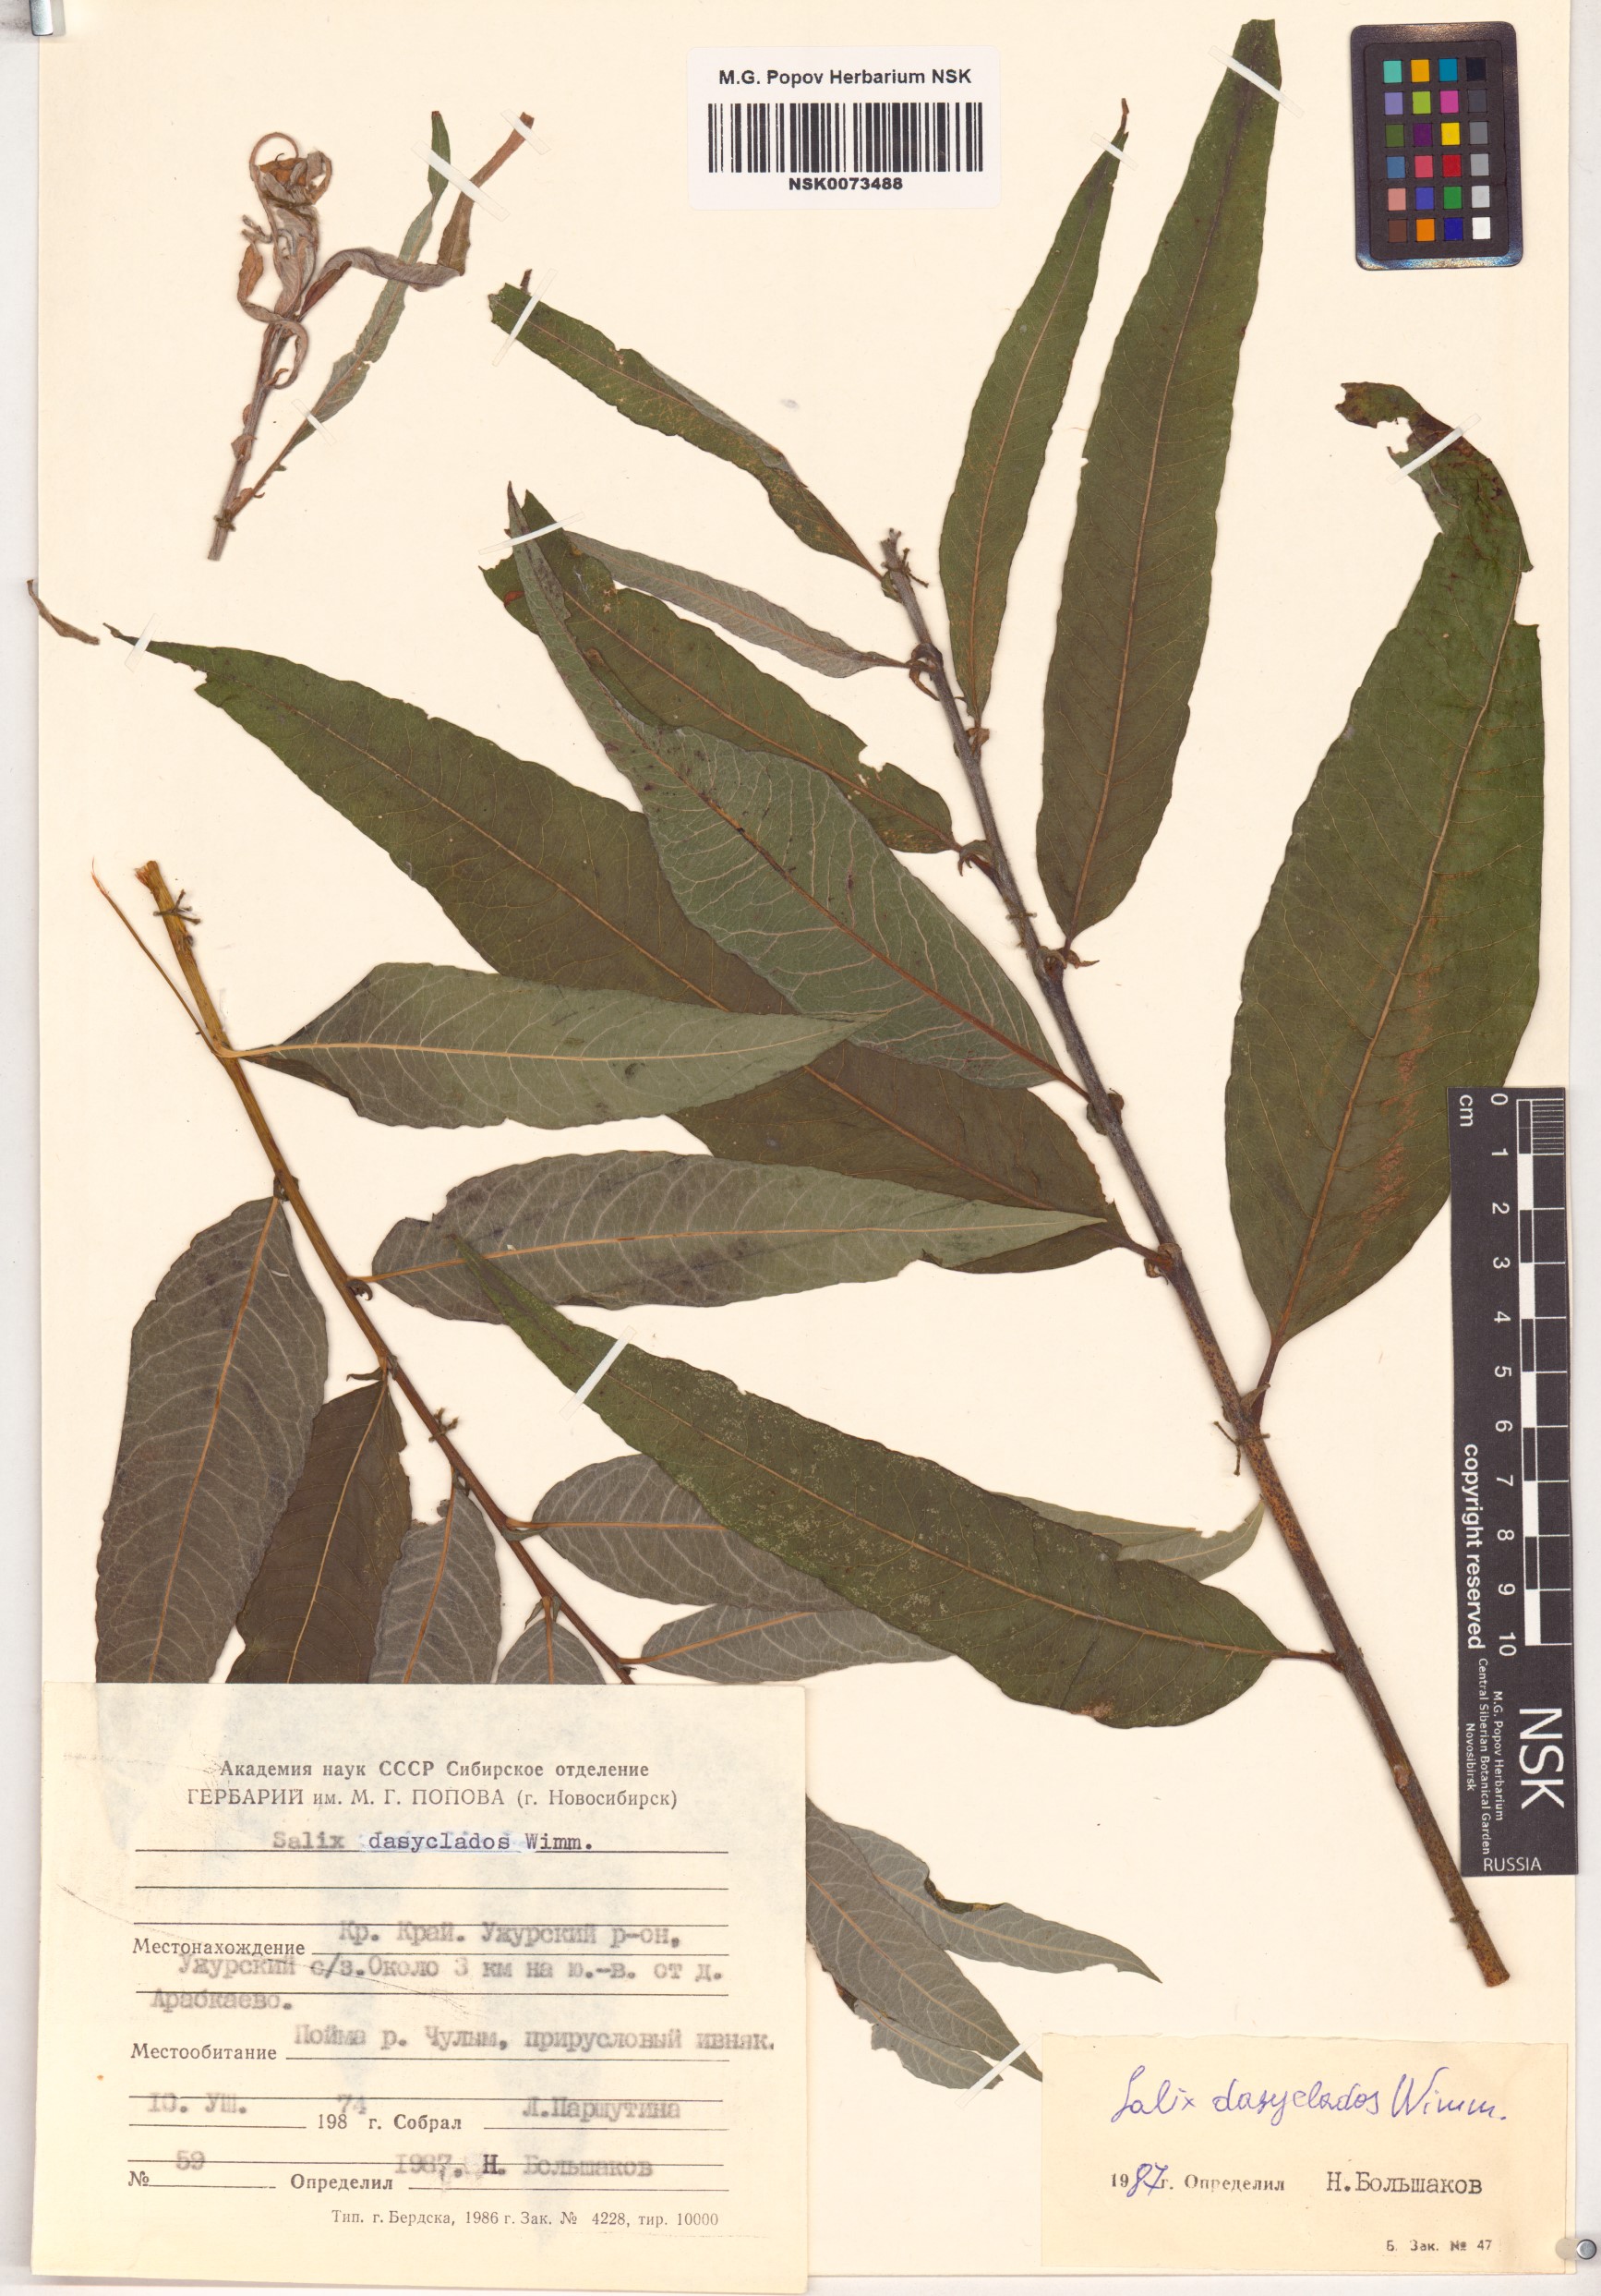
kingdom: Plantae
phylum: Tracheophyta
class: Magnoliopsida
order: Malpighiales
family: Salicaceae
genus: Salix
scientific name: Salix gmelinii
